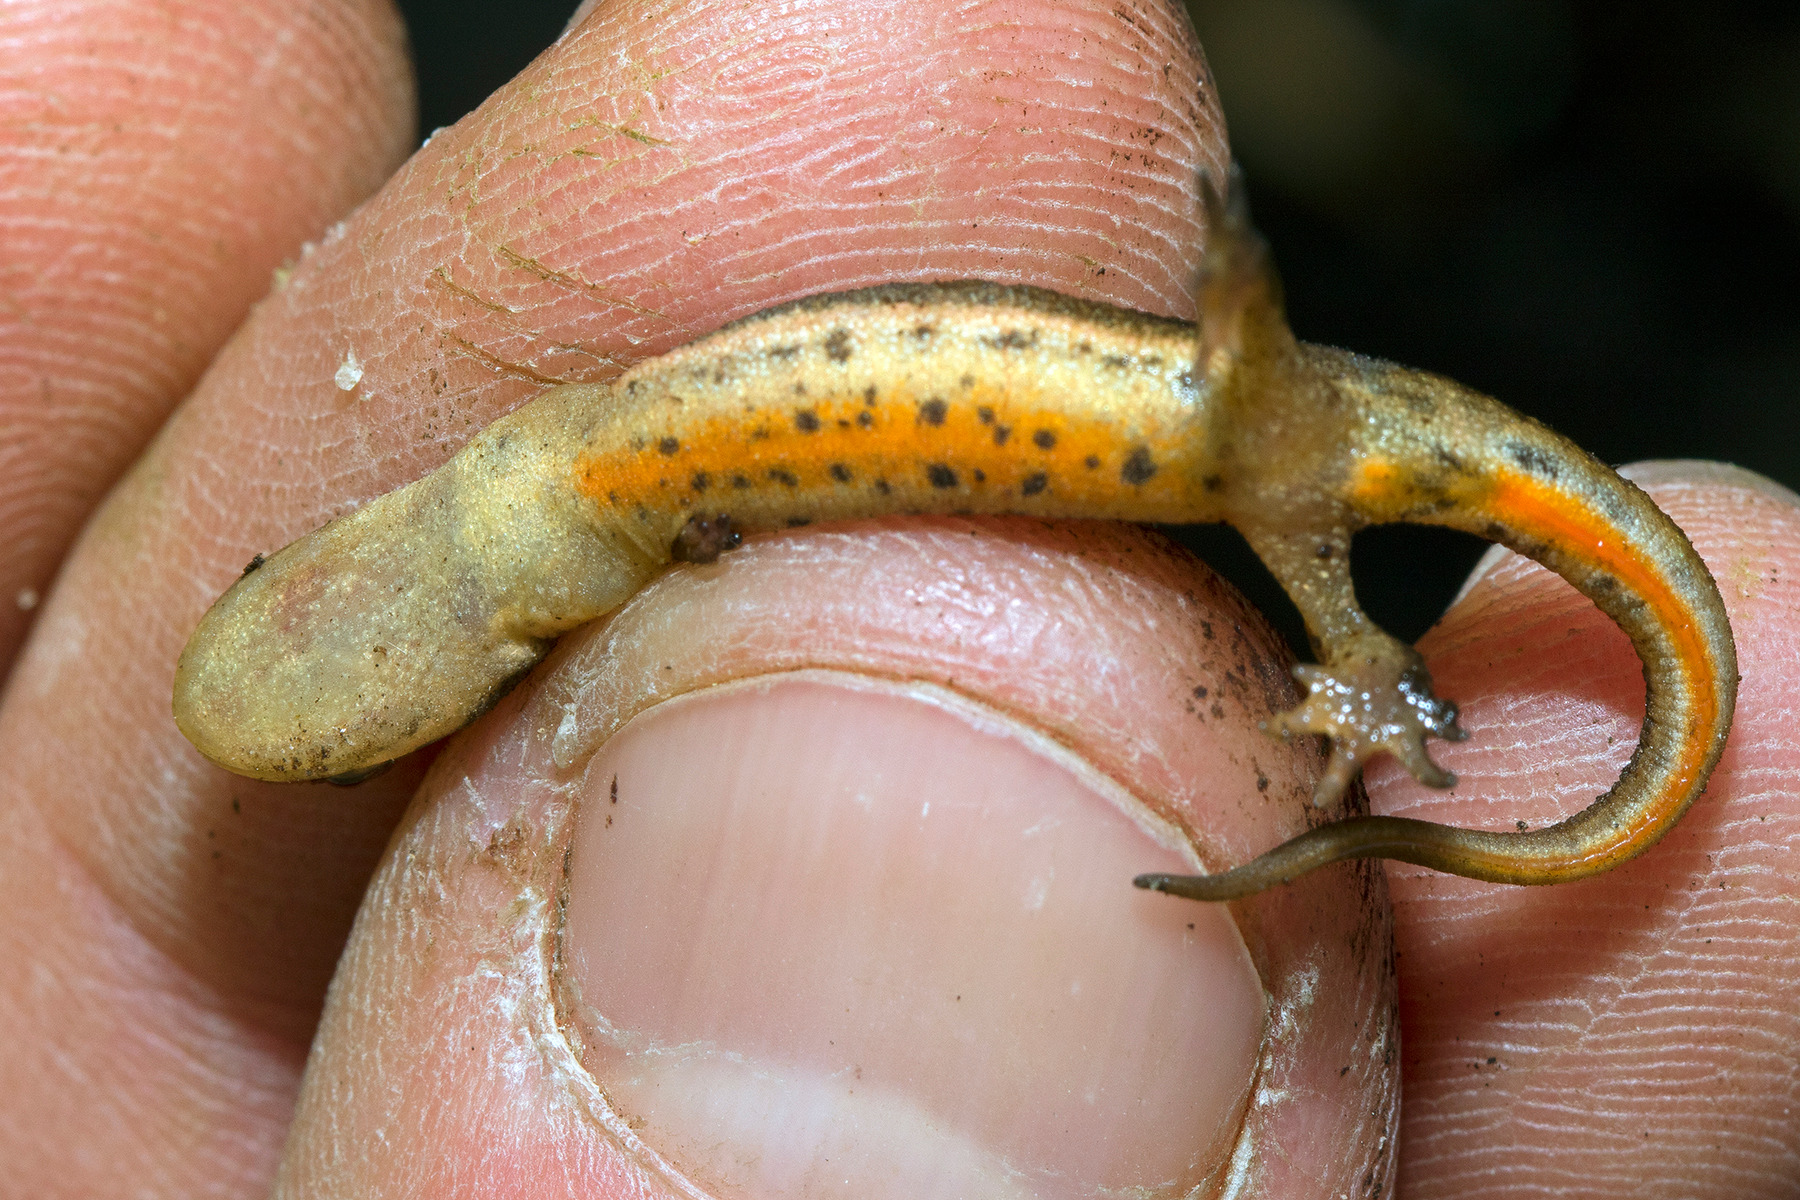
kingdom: Animalia
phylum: Chordata
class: Amphibia
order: Caudata
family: Salamandridae
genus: Lissotriton
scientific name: Lissotriton vulgaris
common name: Lille vandsalamander
